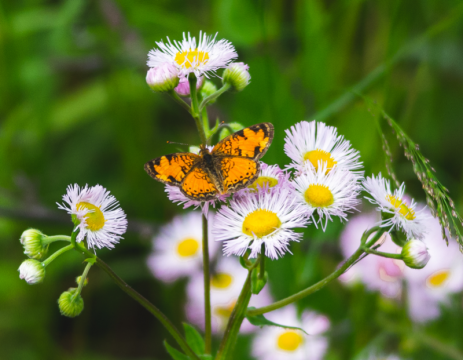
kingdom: Animalia
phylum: Arthropoda
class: Insecta
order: Lepidoptera
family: Nymphalidae
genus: Phyciodes
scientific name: Phyciodes tharos
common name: Northern Crescent
